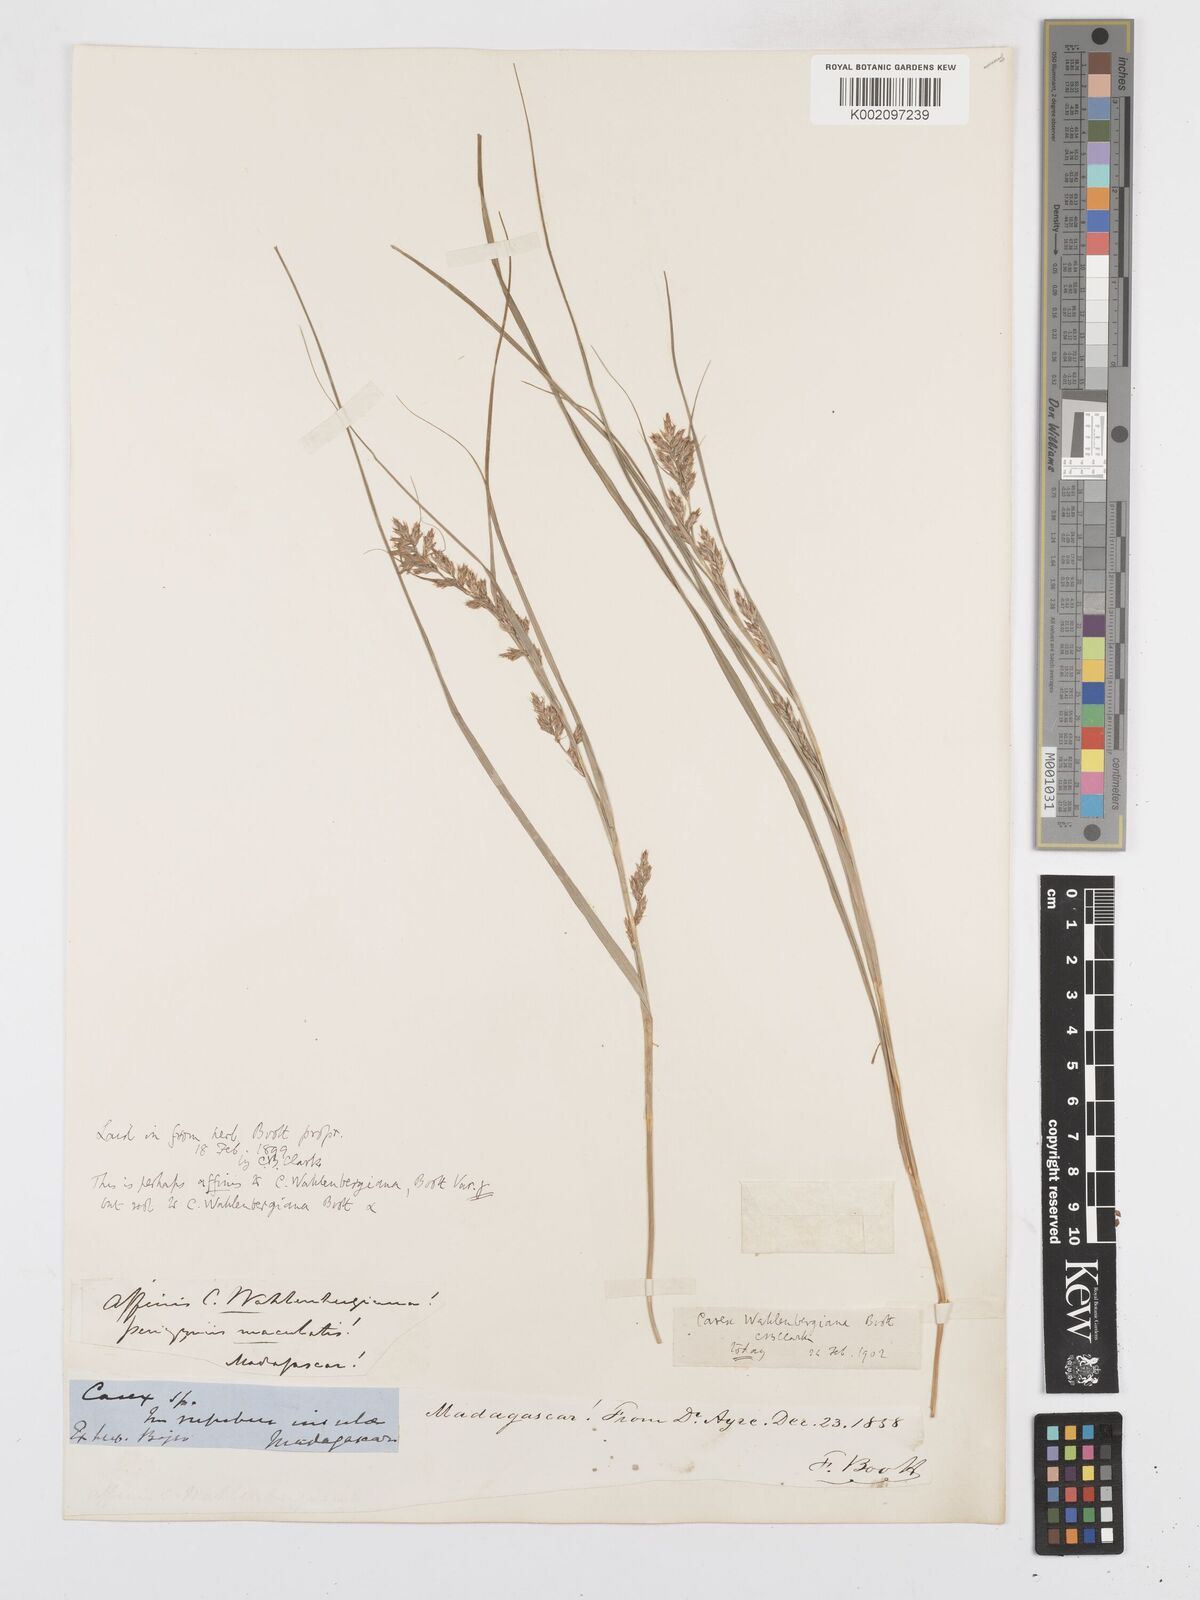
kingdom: Plantae
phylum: Tracheophyta
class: Liliopsida
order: Poales
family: Cyperaceae
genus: Carex
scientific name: Carex wahlenbergiana
